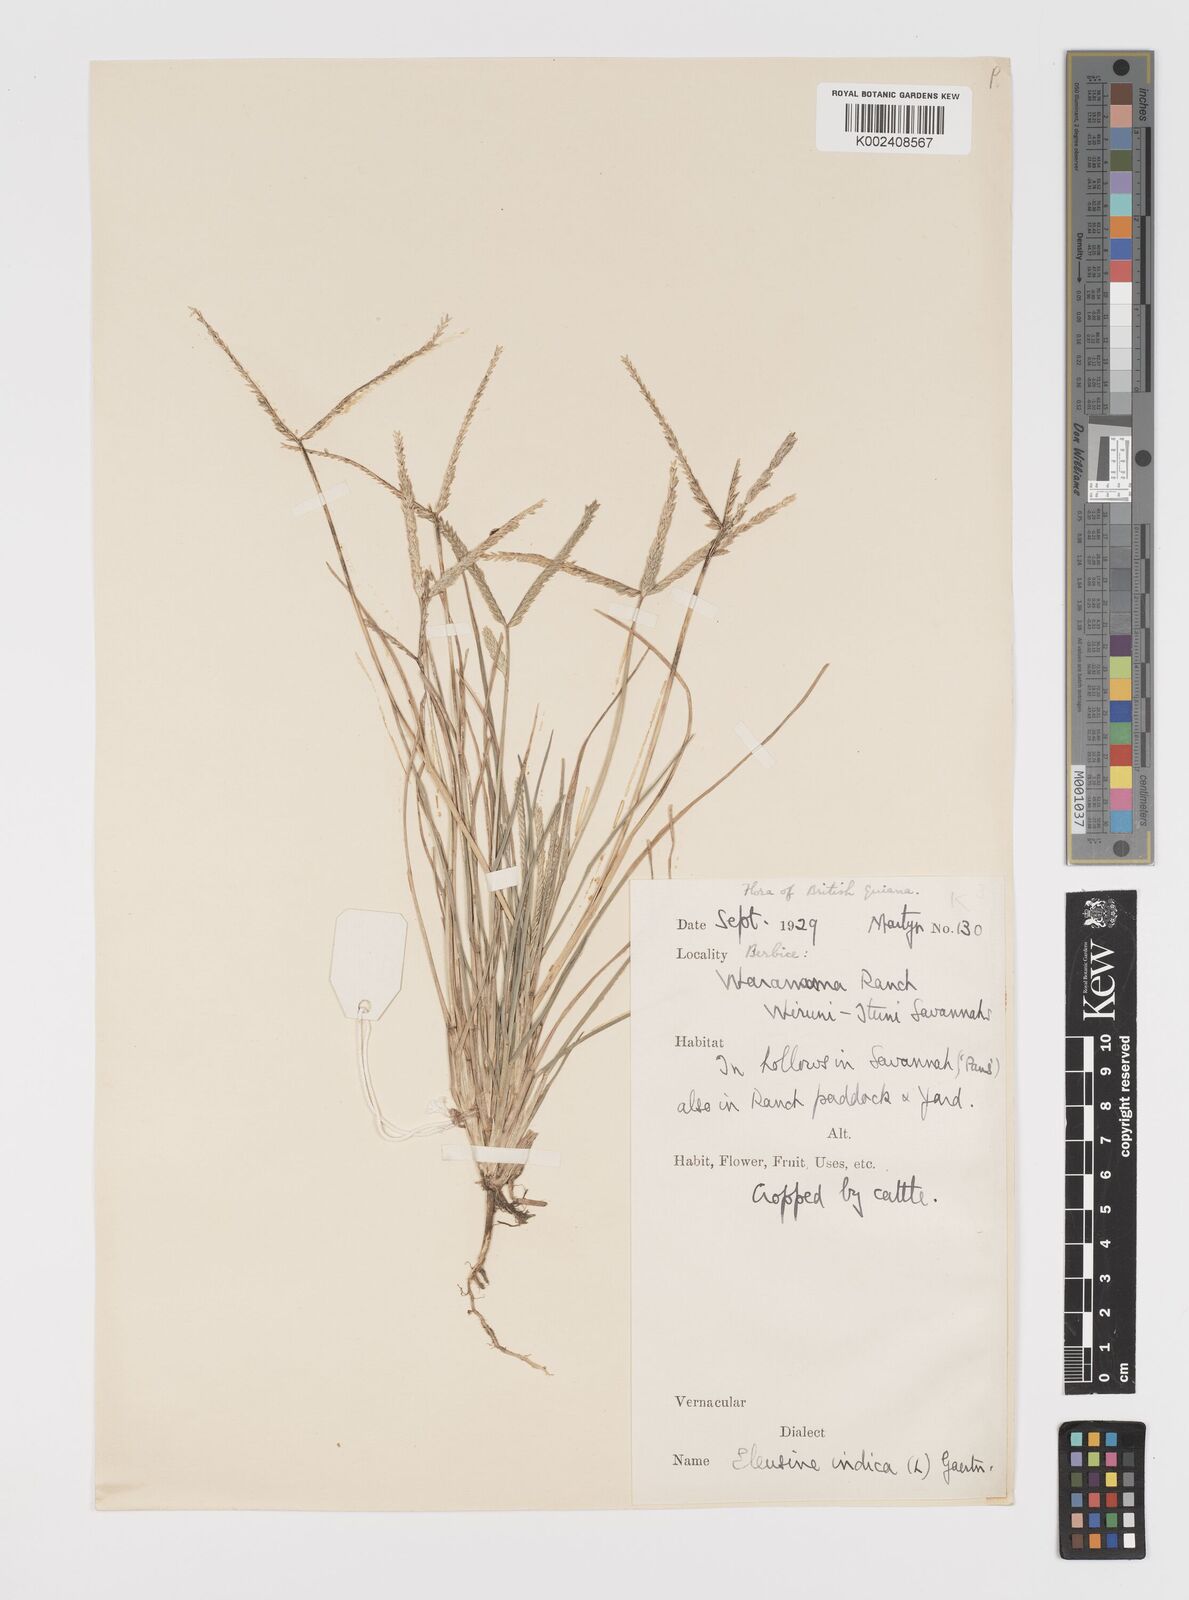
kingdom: Plantae
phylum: Tracheophyta
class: Liliopsida
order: Poales
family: Poaceae
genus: Eleusine
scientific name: Eleusine indica
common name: Yard-grass
